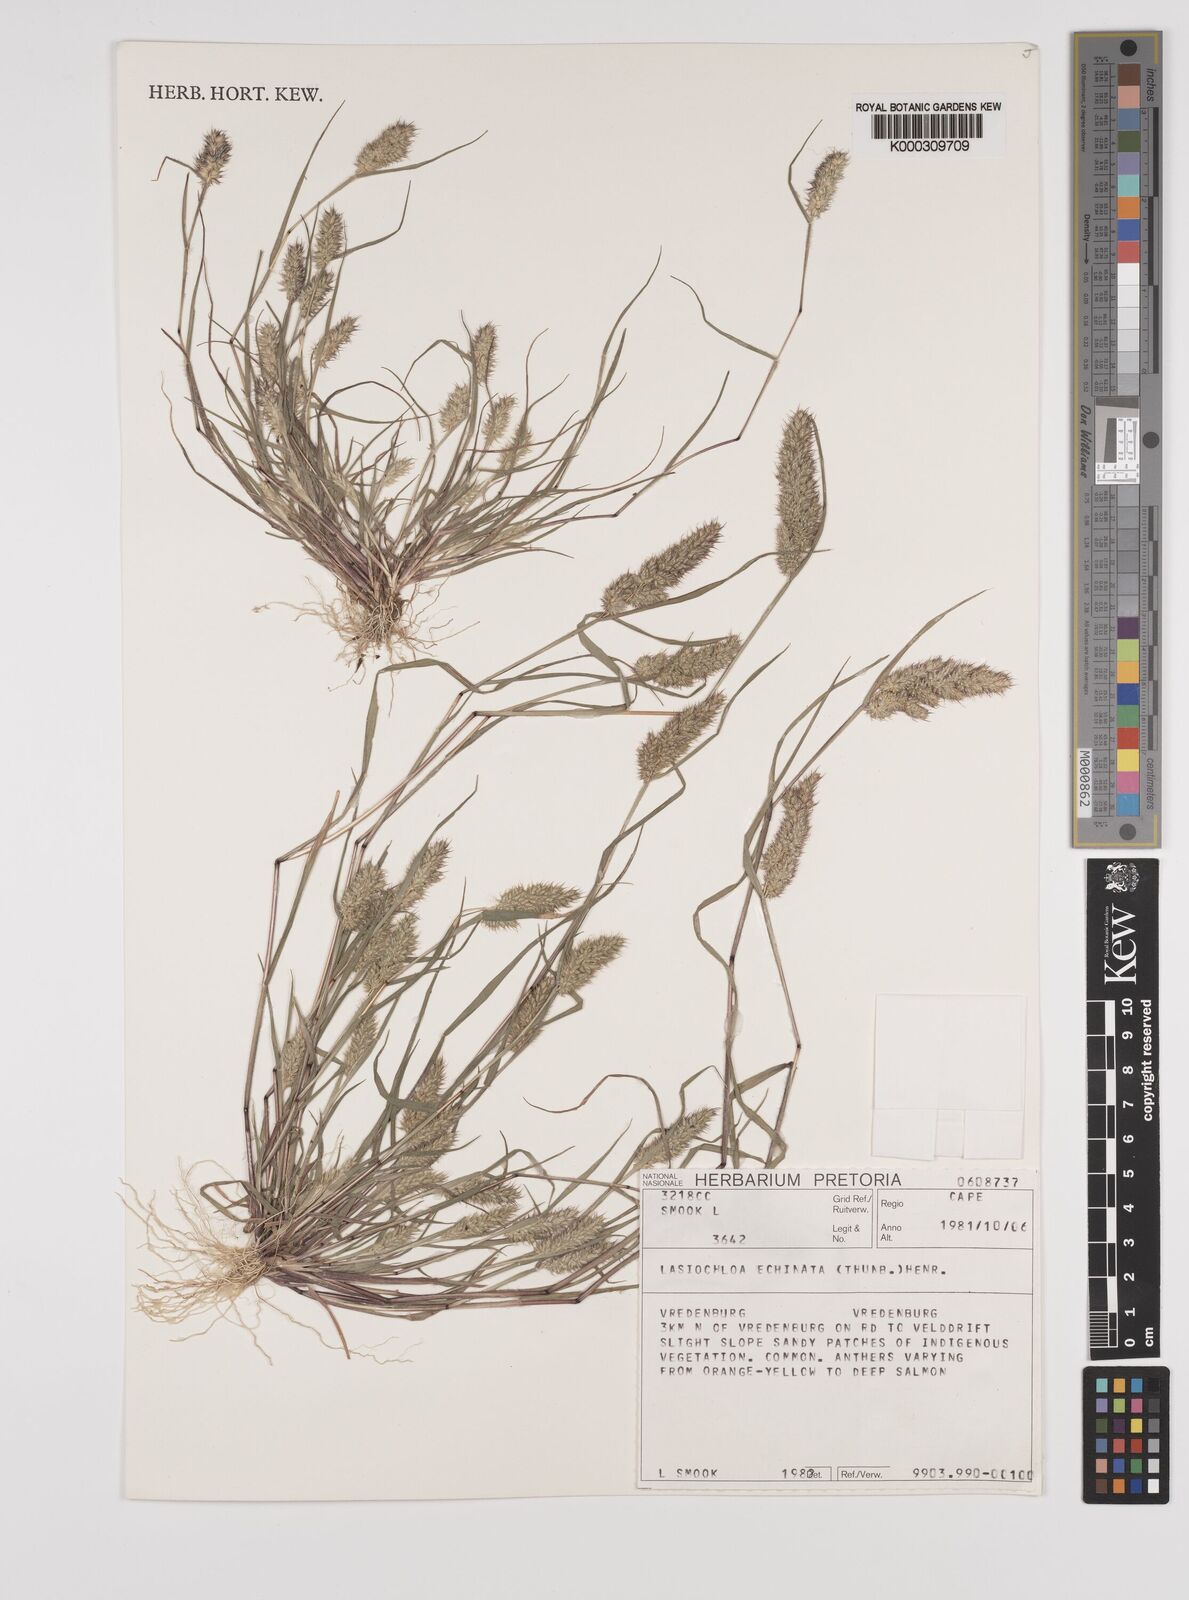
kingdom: Plantae
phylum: Tracheophyta
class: Liliopsida
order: Poales
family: Poaceae
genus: Tribolium
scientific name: Tribolium echinatum
